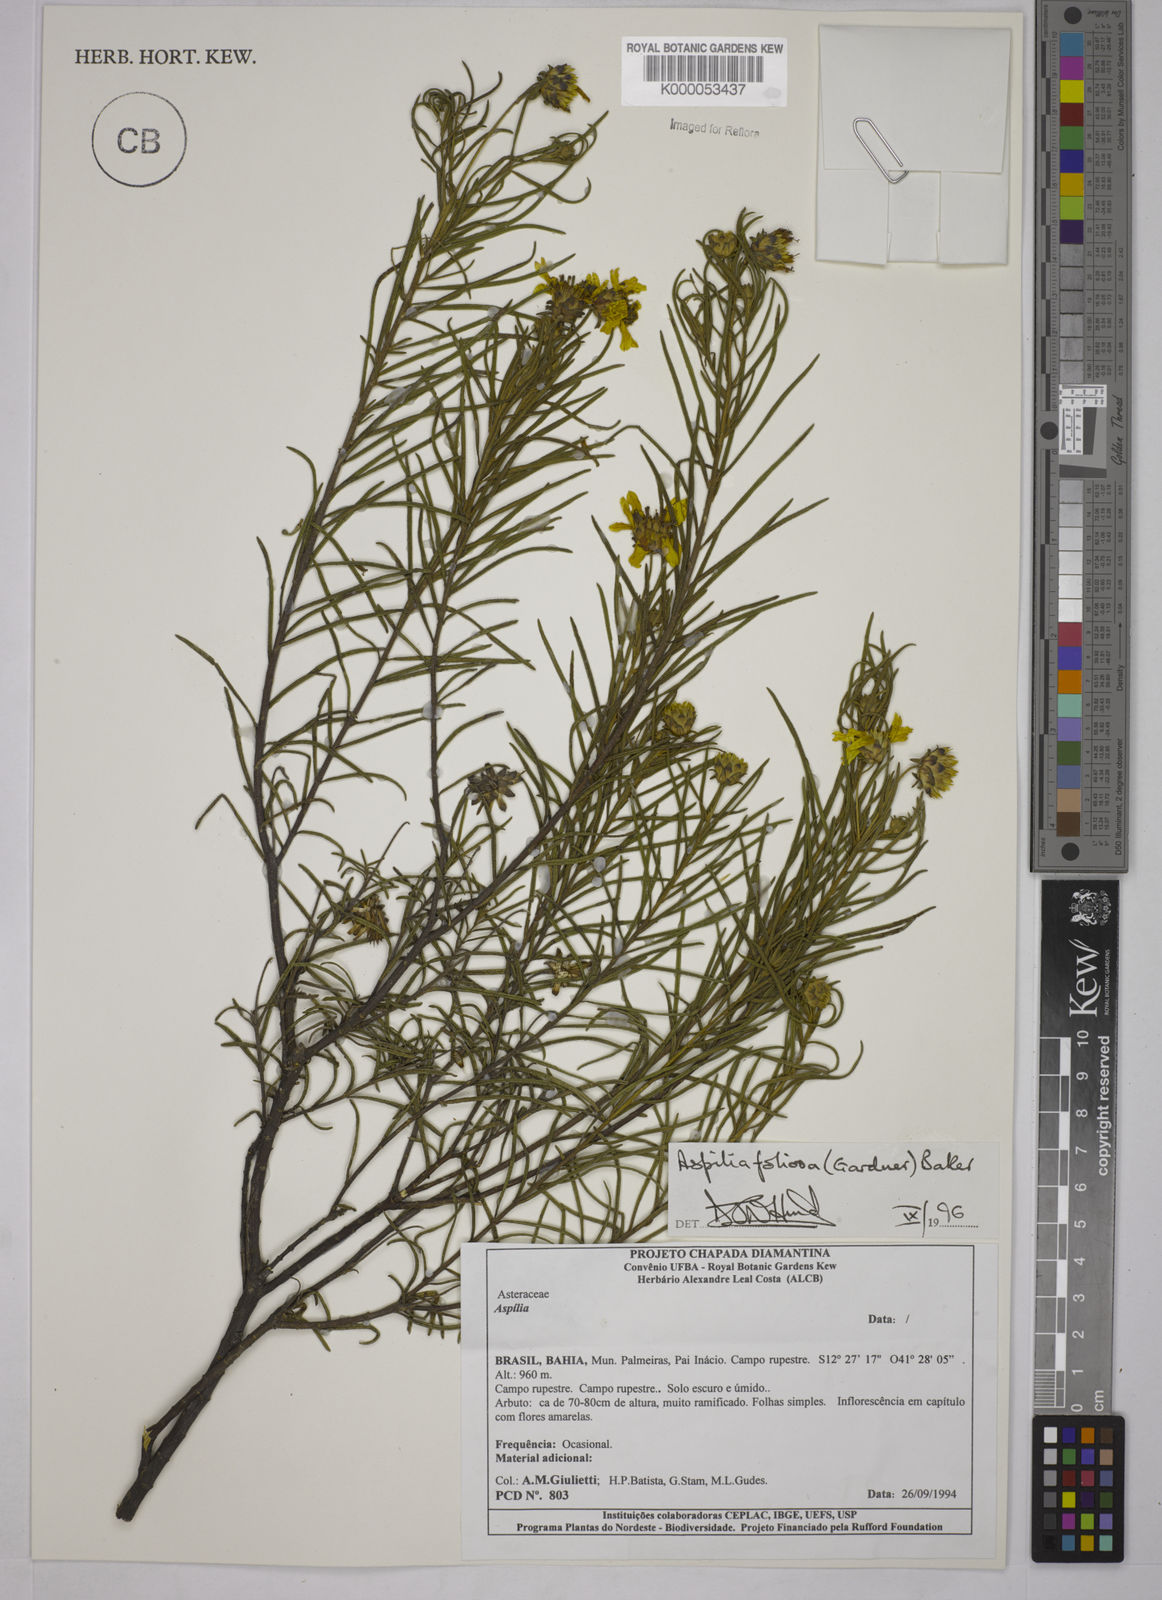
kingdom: Plantae
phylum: Tracheophyta
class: Magnoliopsida
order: Asterales
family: Asteraceae
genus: Aspilia
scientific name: Aspilia
